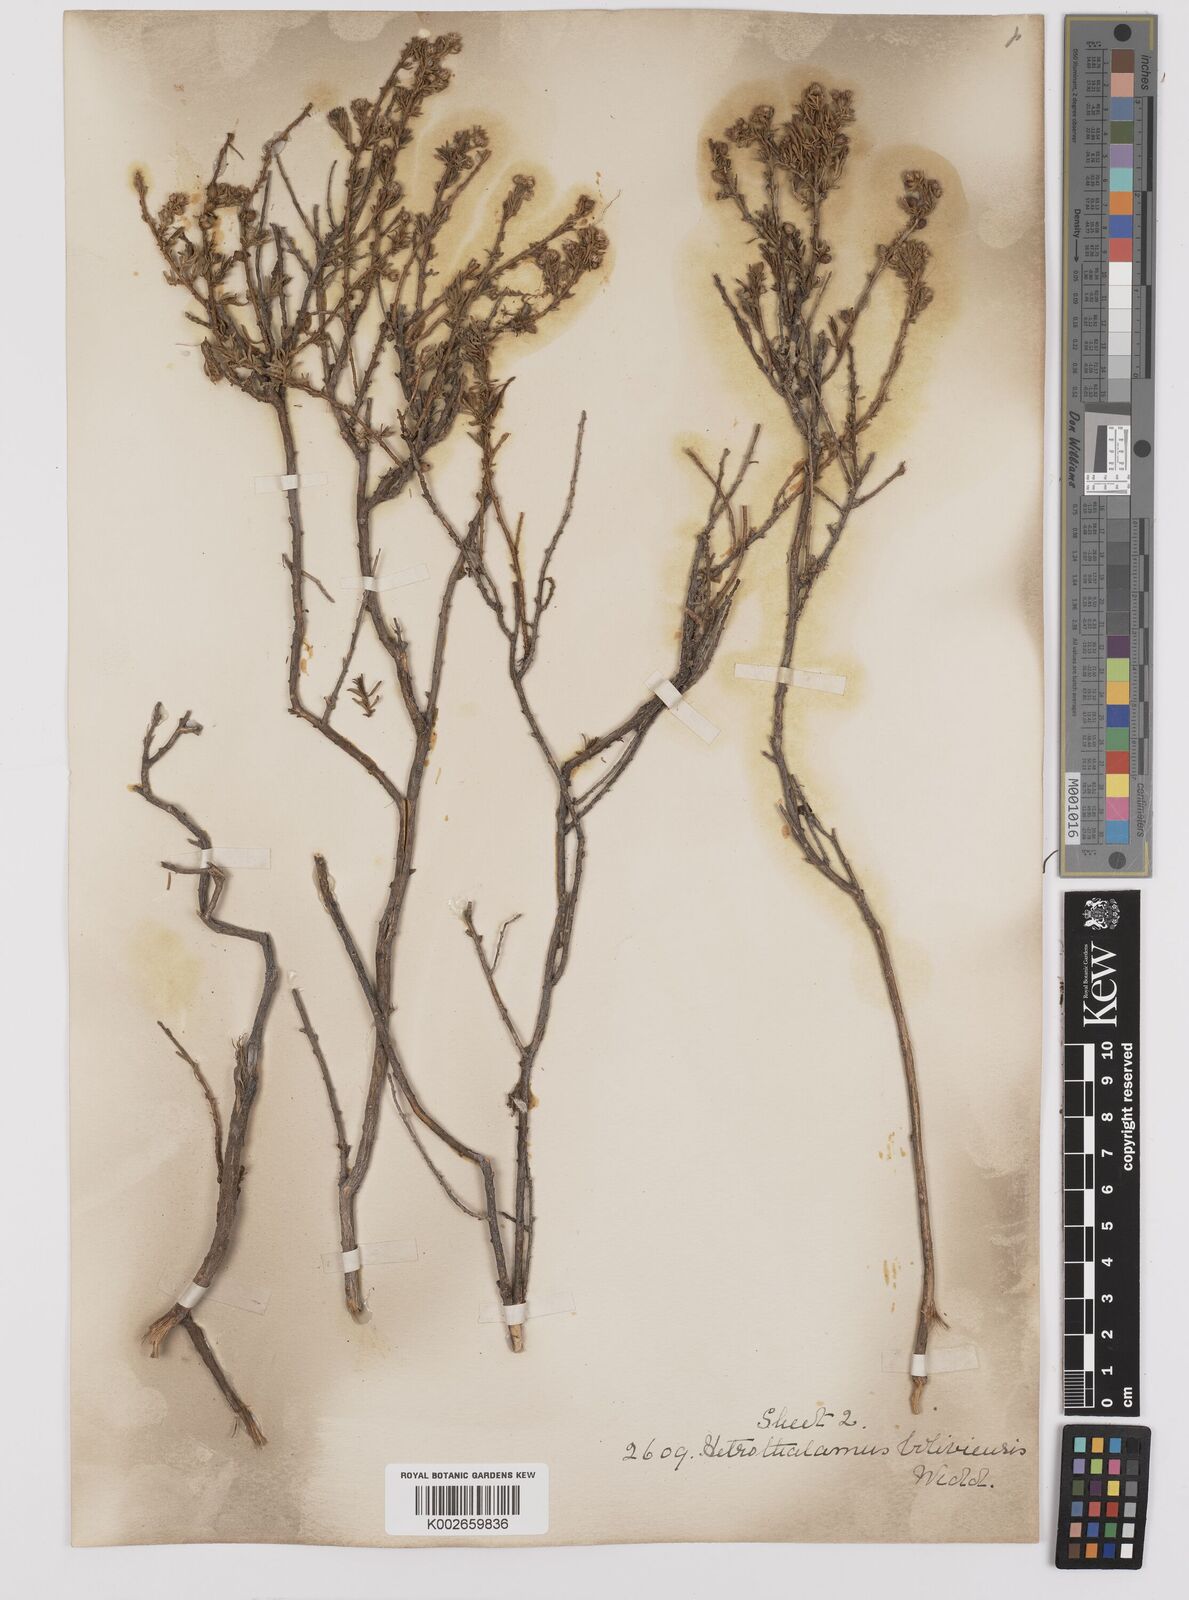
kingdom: Plantae
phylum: Tracheophyta
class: Magnoliopsida
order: Asterales
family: Asteraceae
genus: Baccharis
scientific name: Baccharis bolivensis
